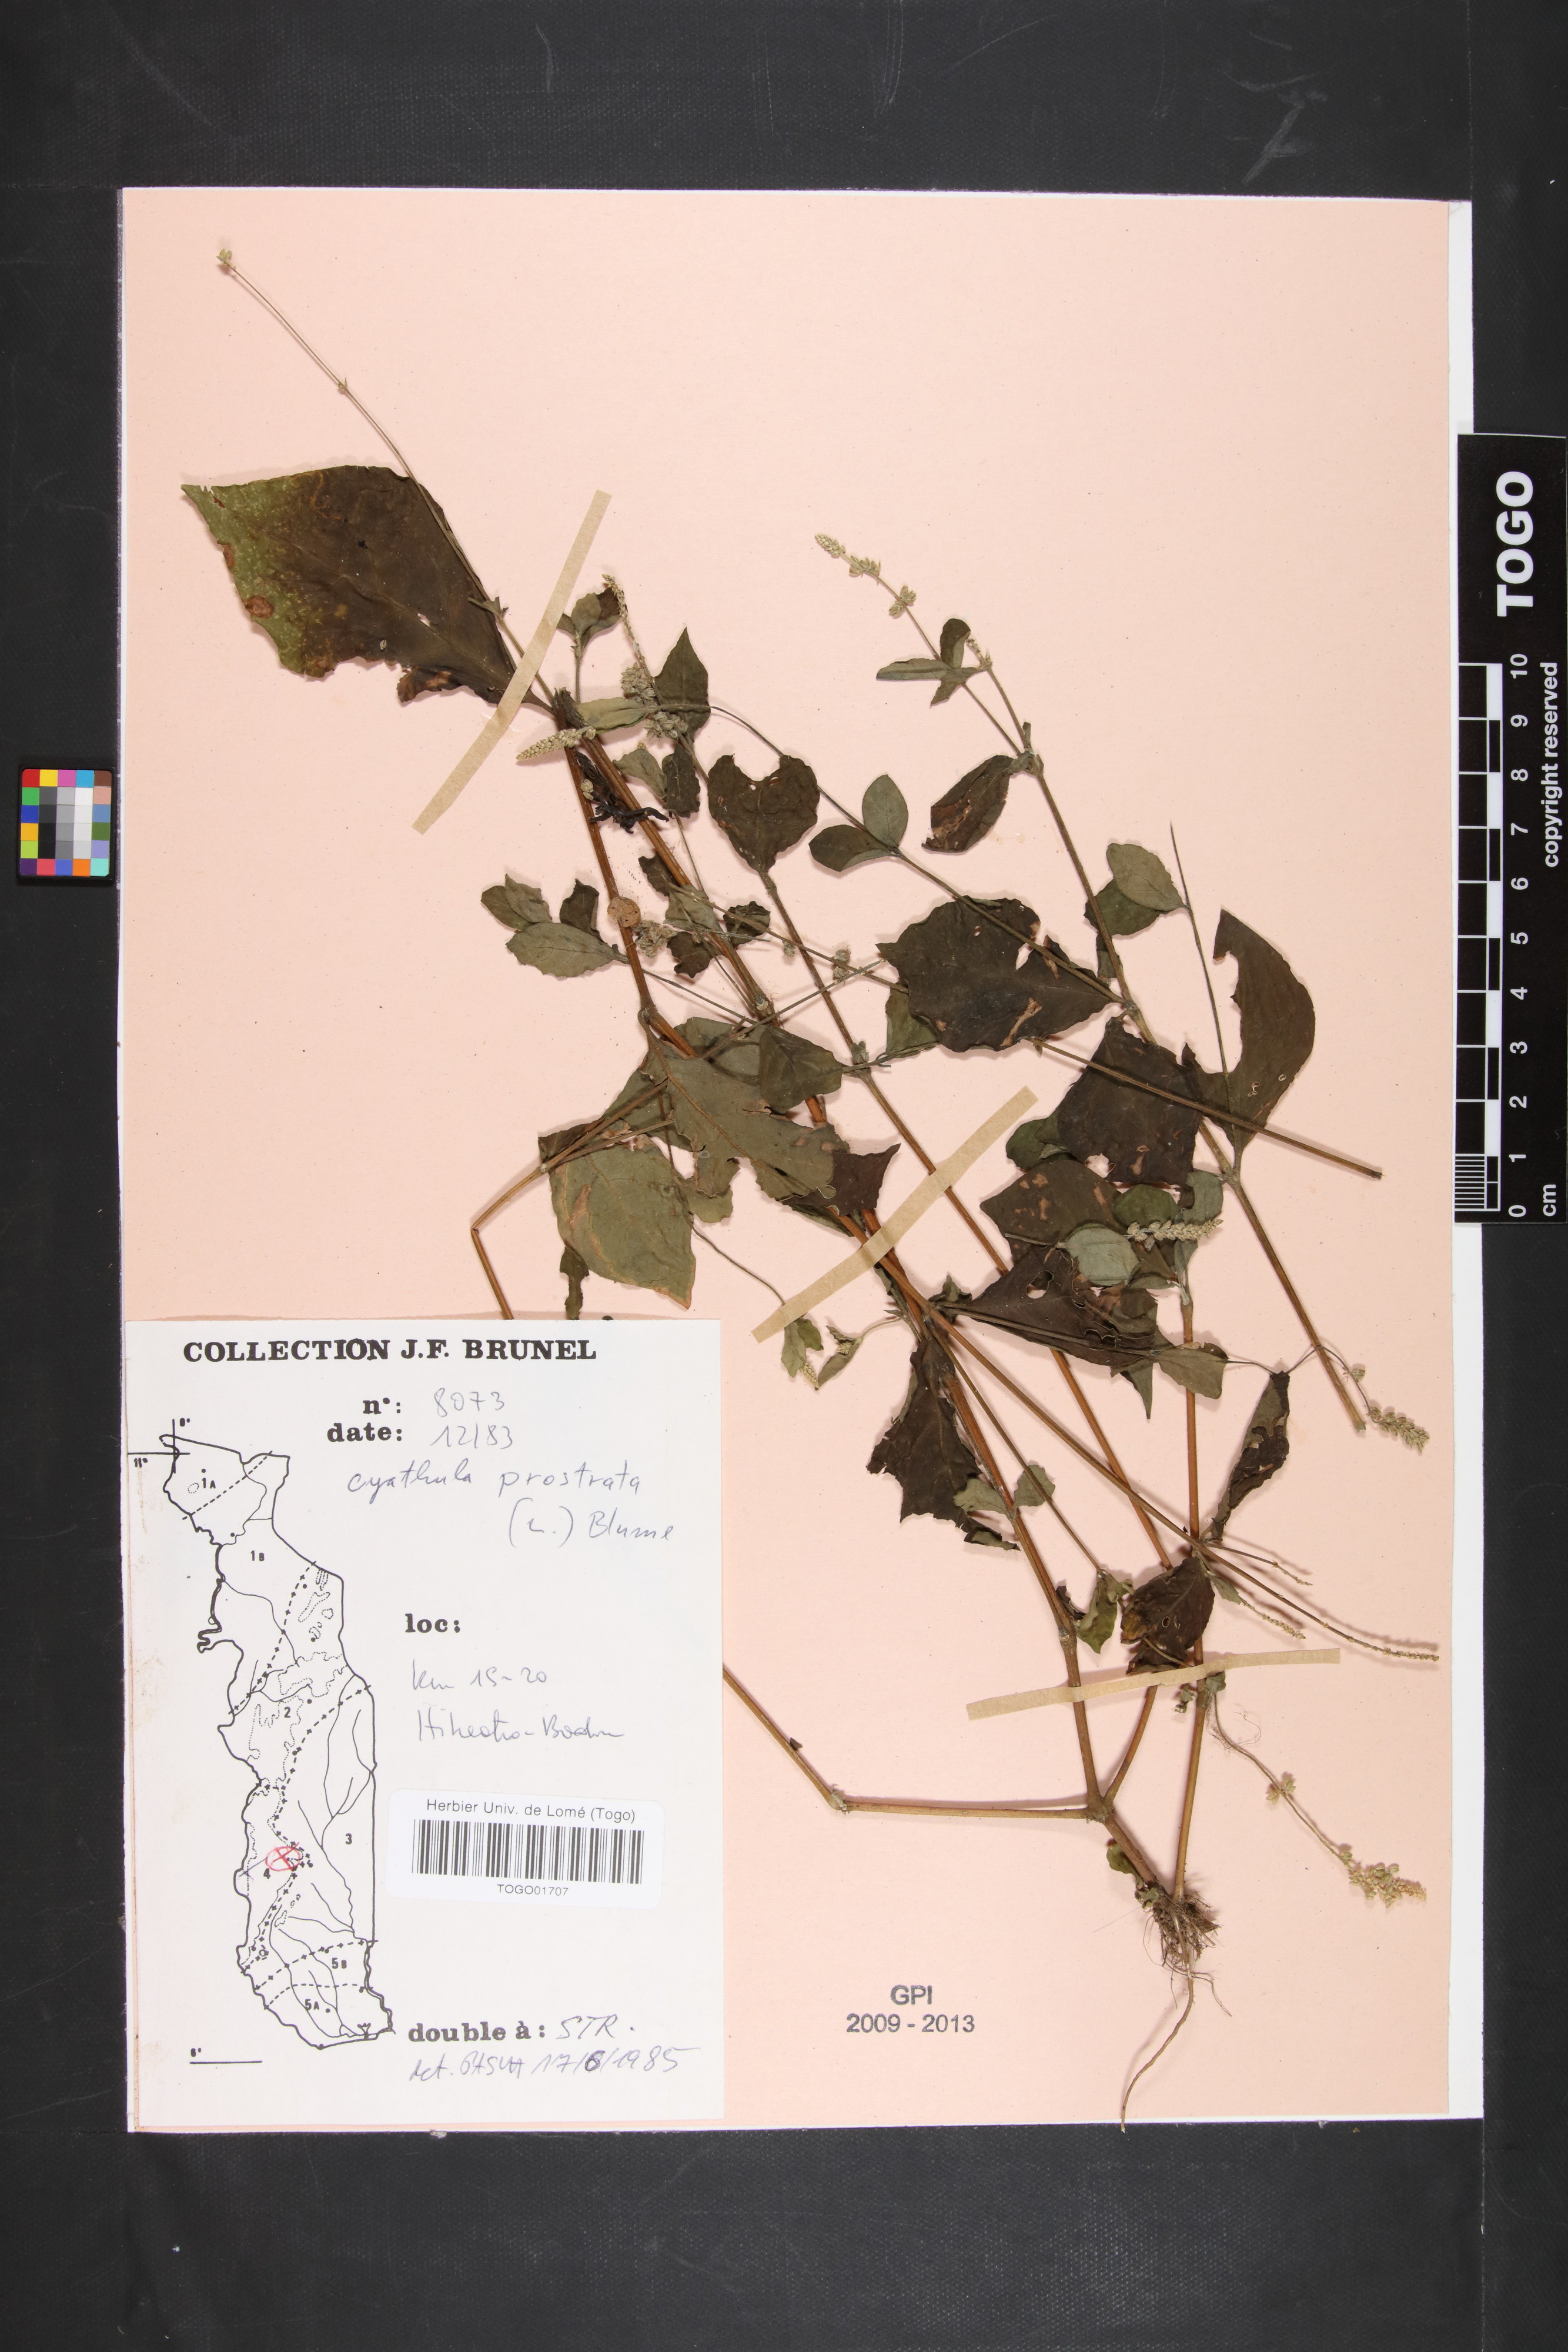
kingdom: Plantae
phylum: Tracheophyta
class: Magnoliopsida
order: Caryophyllales
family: Amaranthaceae
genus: Cyathula
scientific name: Cyathula prostrata
